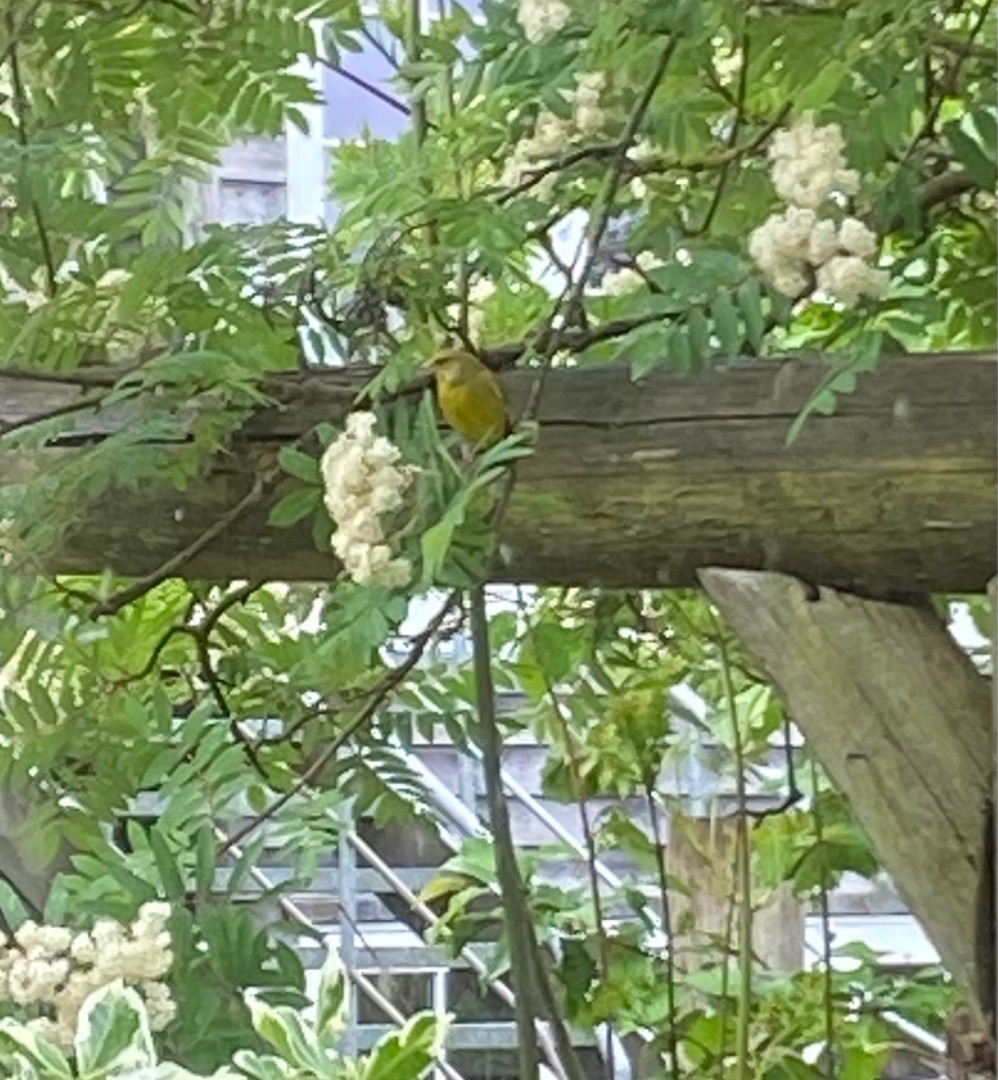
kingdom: Plantae
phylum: Tracheophyta
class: Liliopsida
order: Poales
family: Poaceae
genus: Chloris
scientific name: Chloris chloris
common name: Grønirisk
